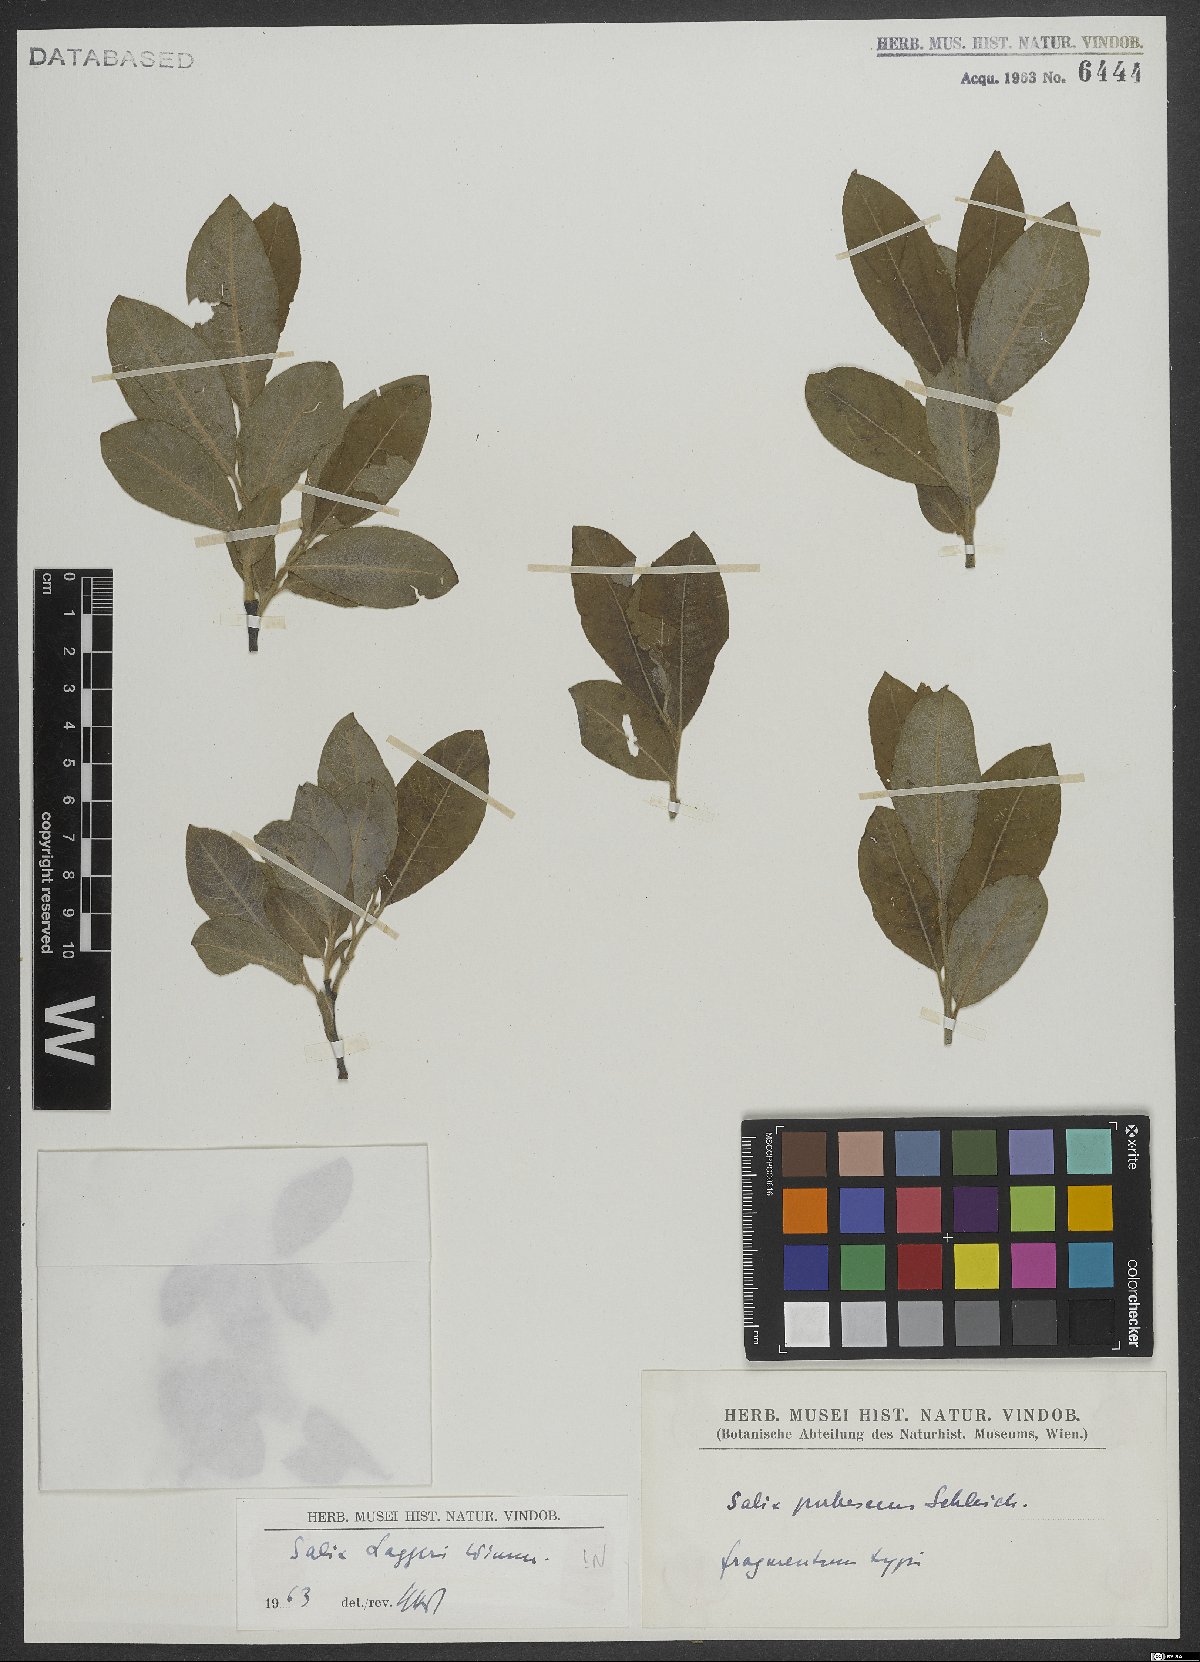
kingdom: Plantae
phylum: Tracheophyta
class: Magnoliopsida
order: Malpighiales
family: Salicaceae
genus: Salix
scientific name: Salix laggeri
